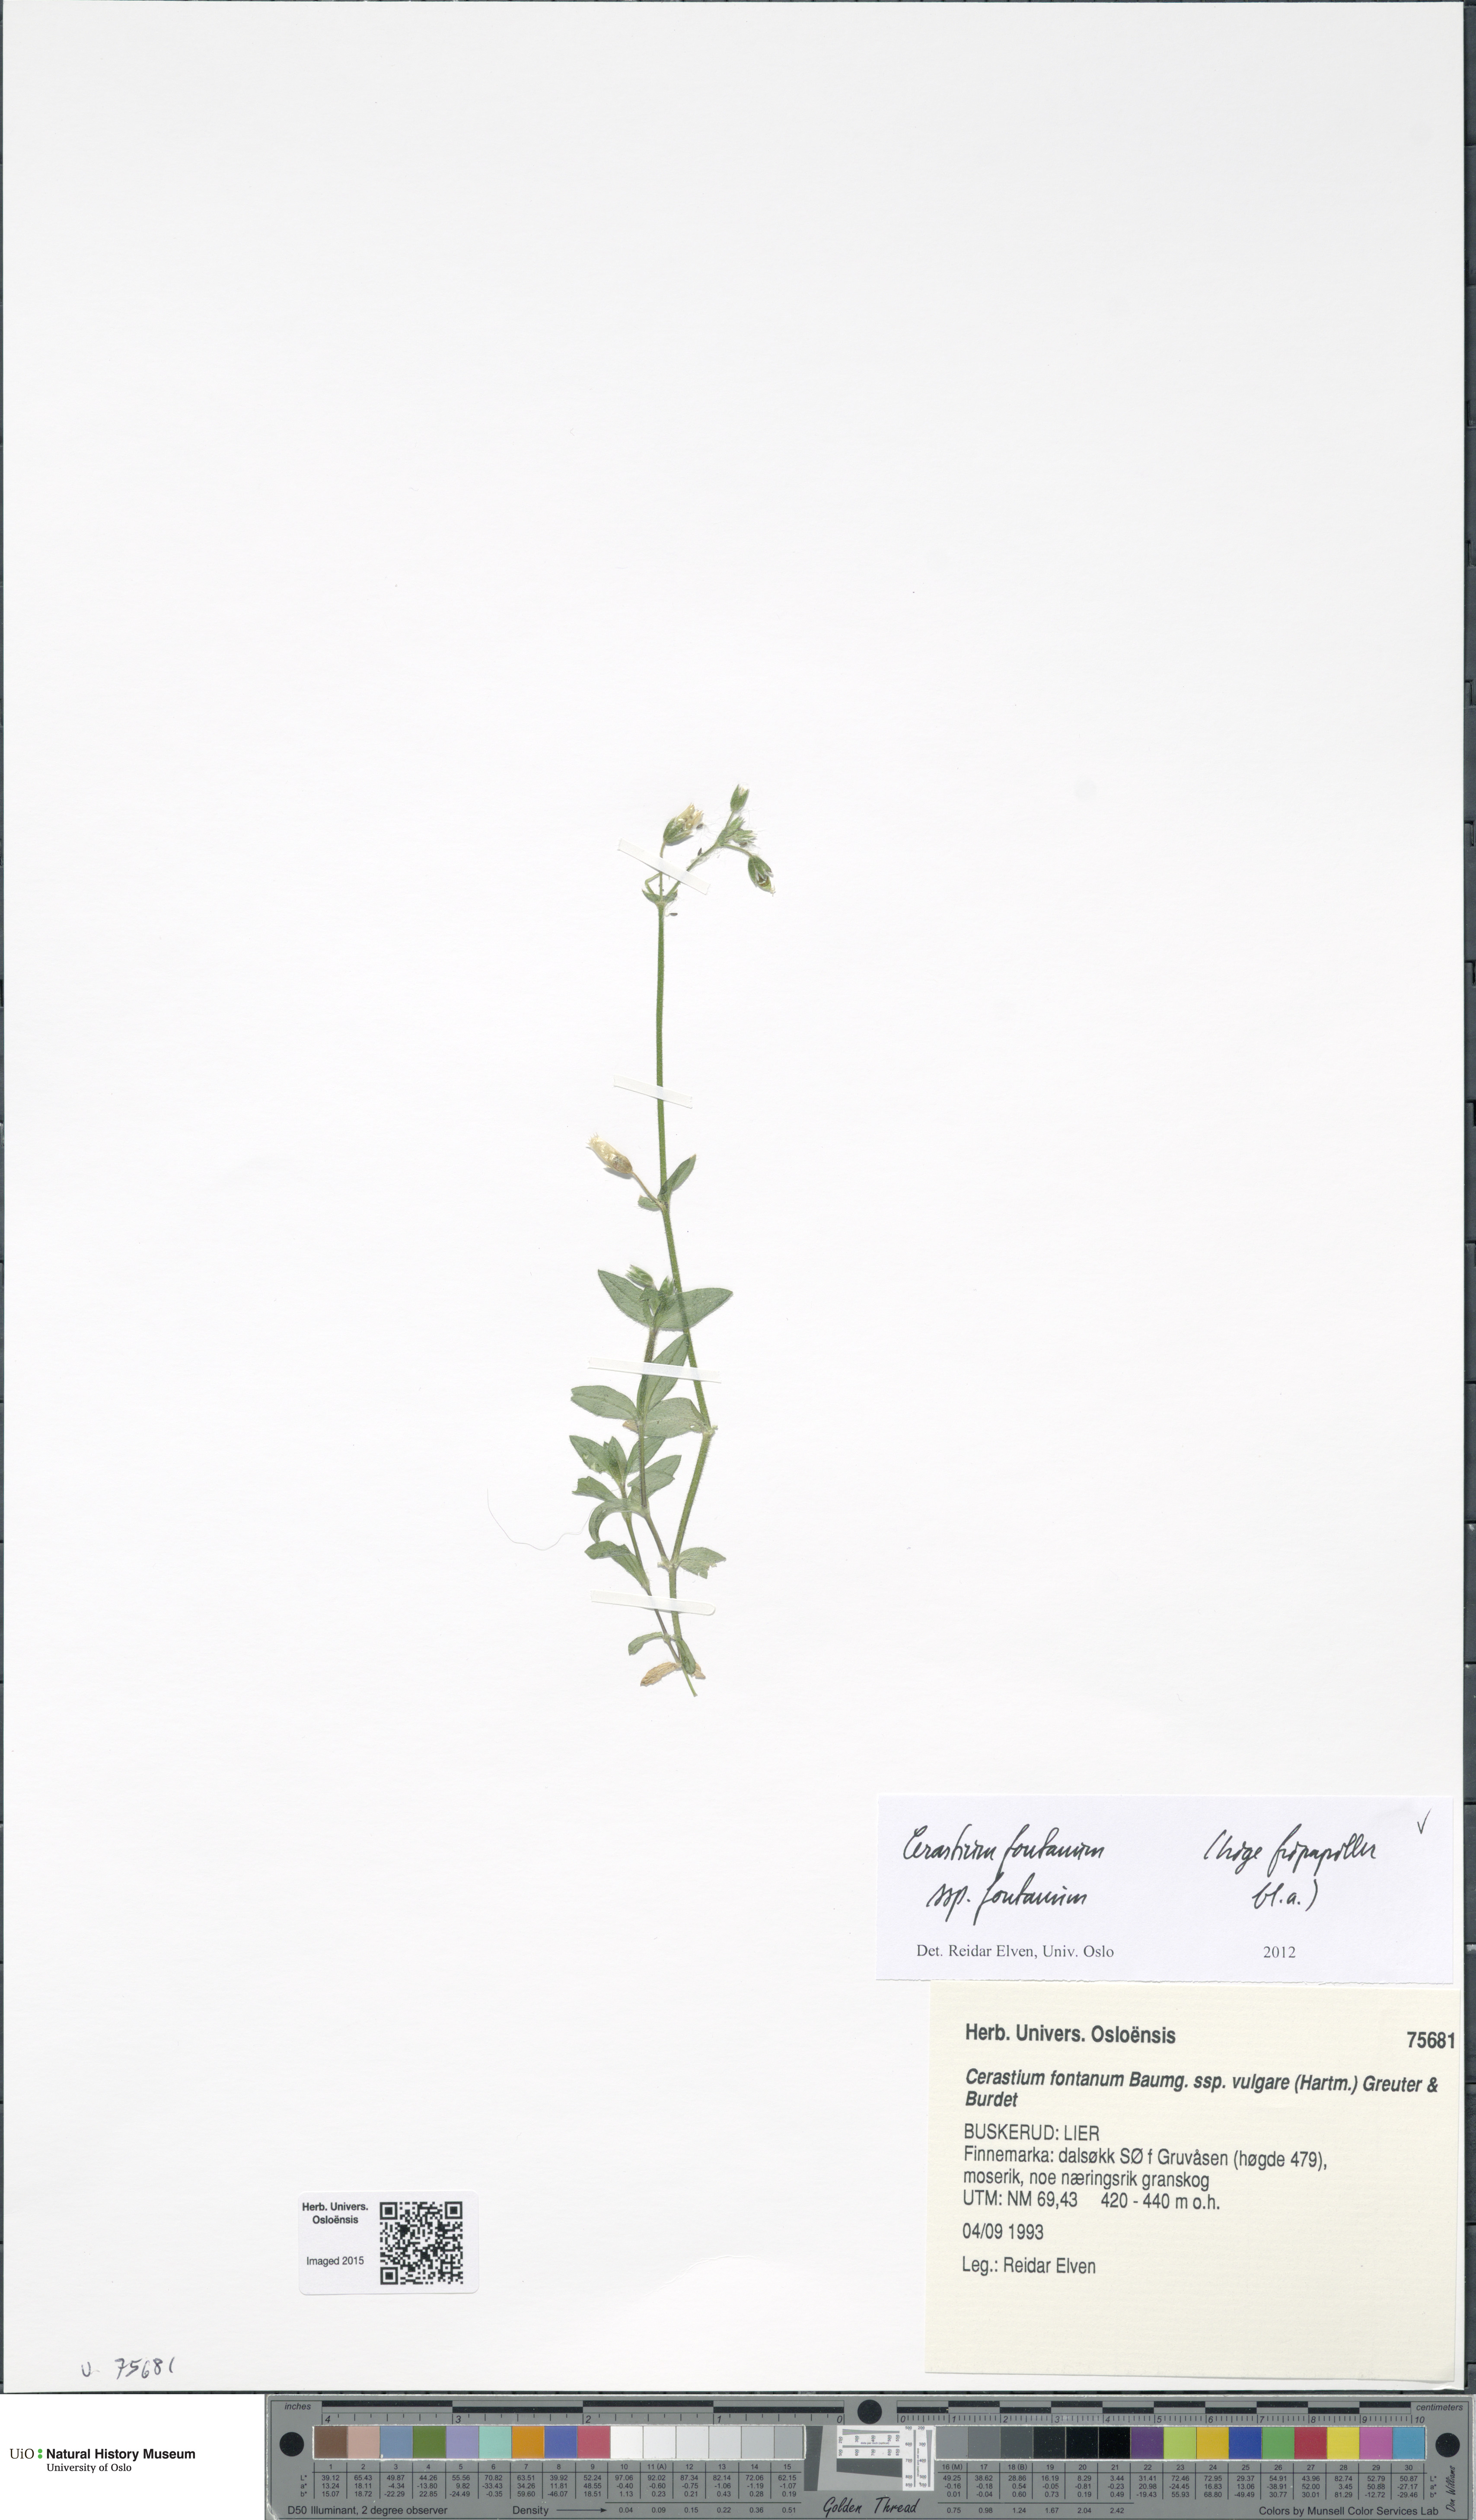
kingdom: Plantae
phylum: Tracheophyta
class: Magnoliopsida
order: Caryophyllales
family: Caryophyllaceae
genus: Cerastium
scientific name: Cerastium fontanum
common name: Common mouse-ear
